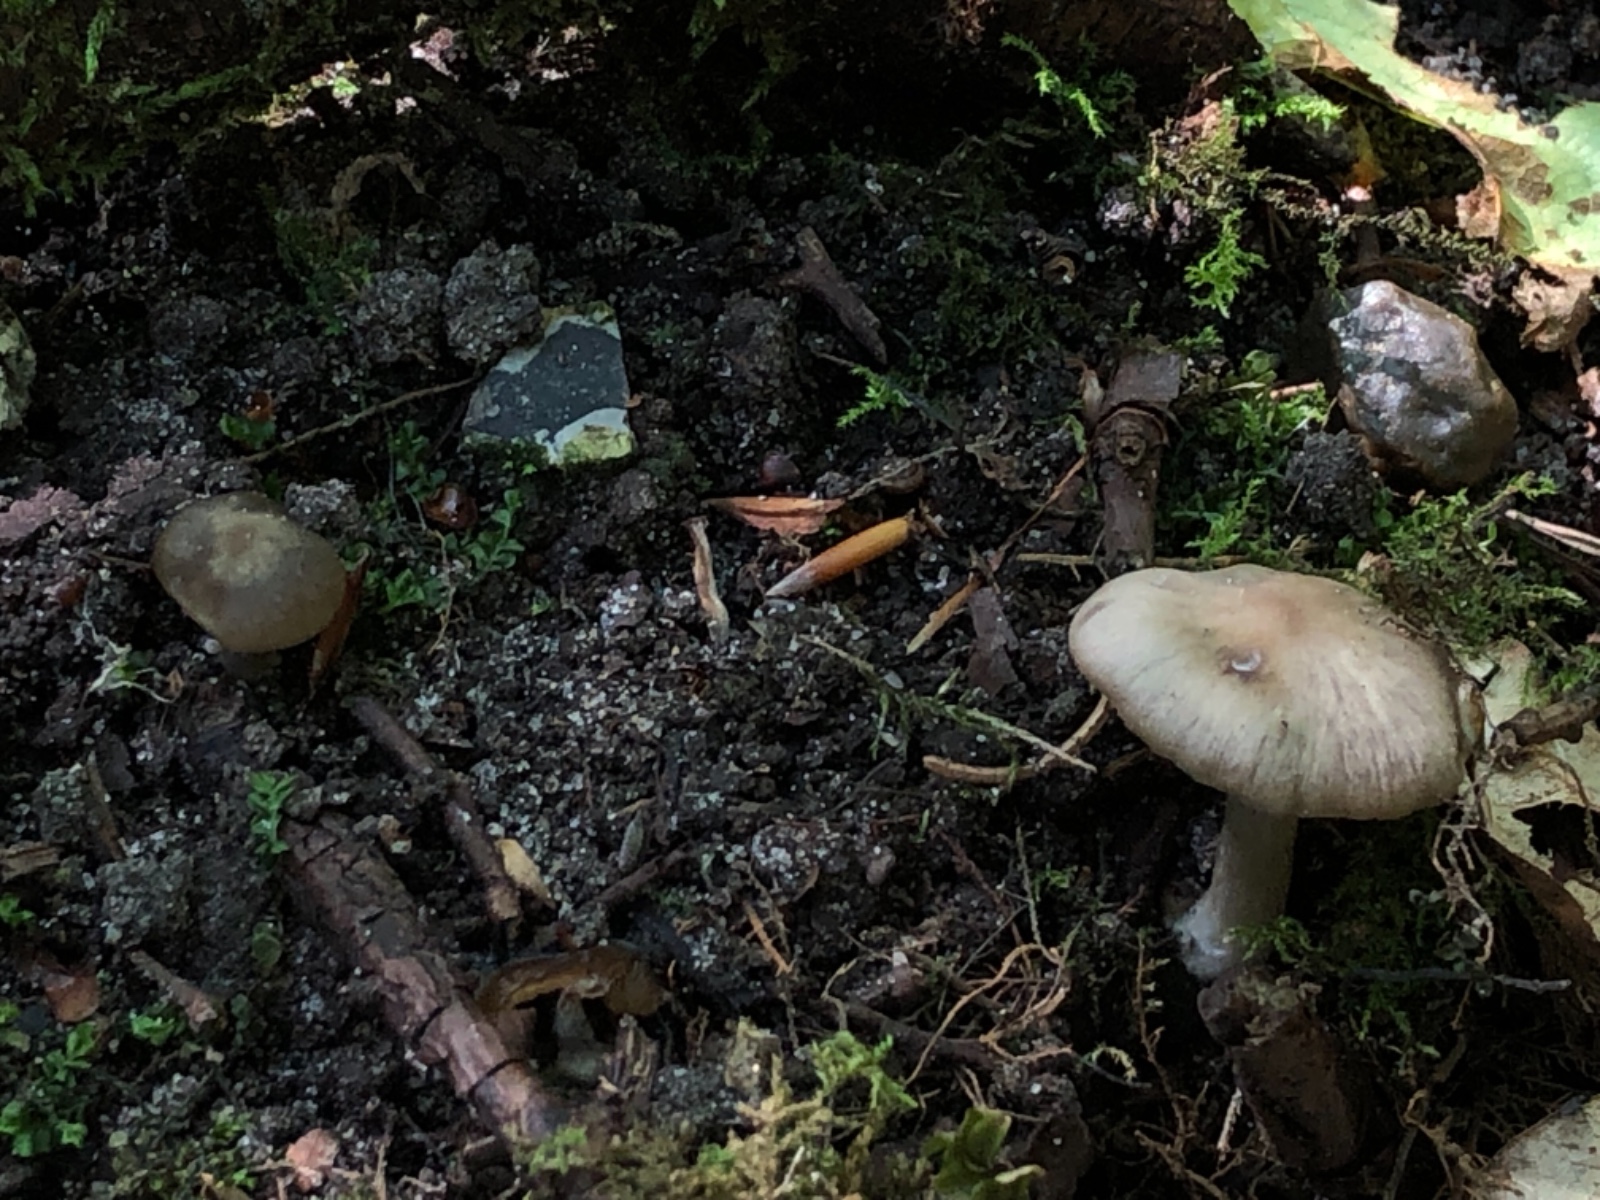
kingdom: Fungi
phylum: Basidiomycota
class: Agaricomycetes
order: Agaricales
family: Entolomataceae
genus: Entoloma
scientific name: Entoloma
